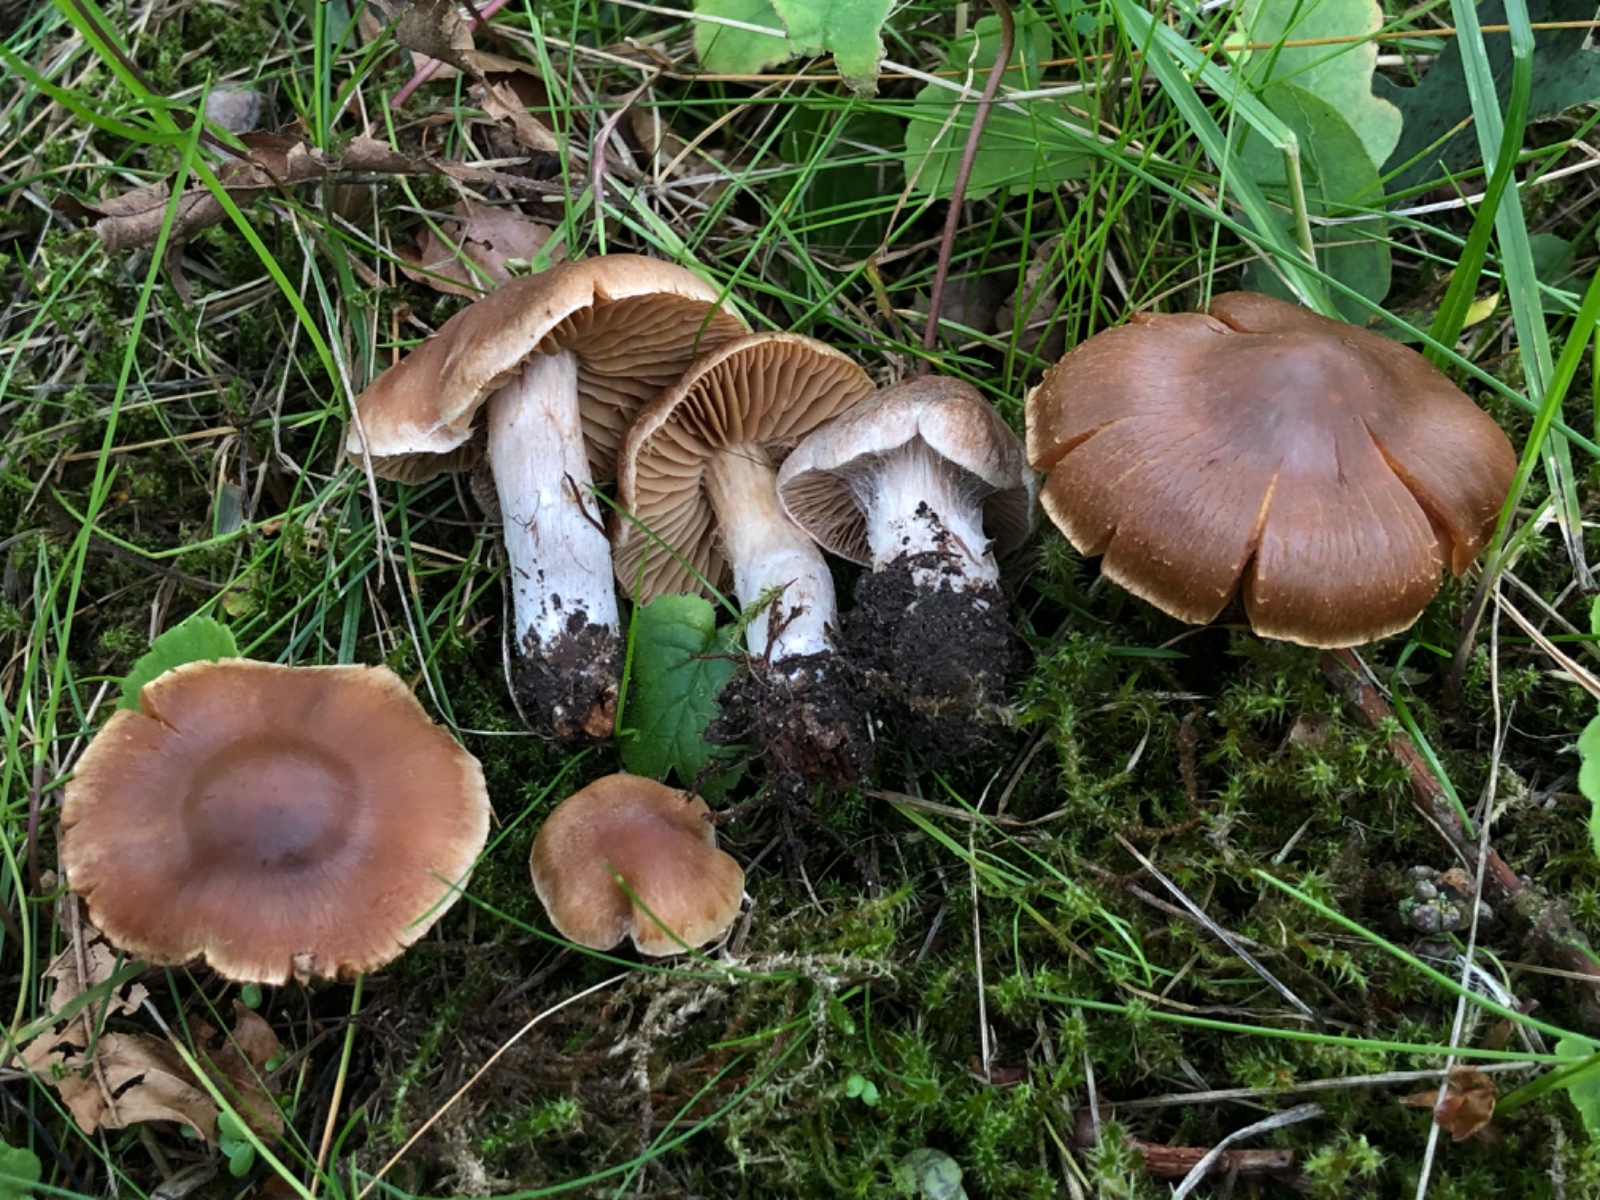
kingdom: Fungi
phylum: Basidiomycota
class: Agaricomycetes
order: Agaricales
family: Cortinariaceae
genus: Cortinarius
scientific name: Cortinarius
